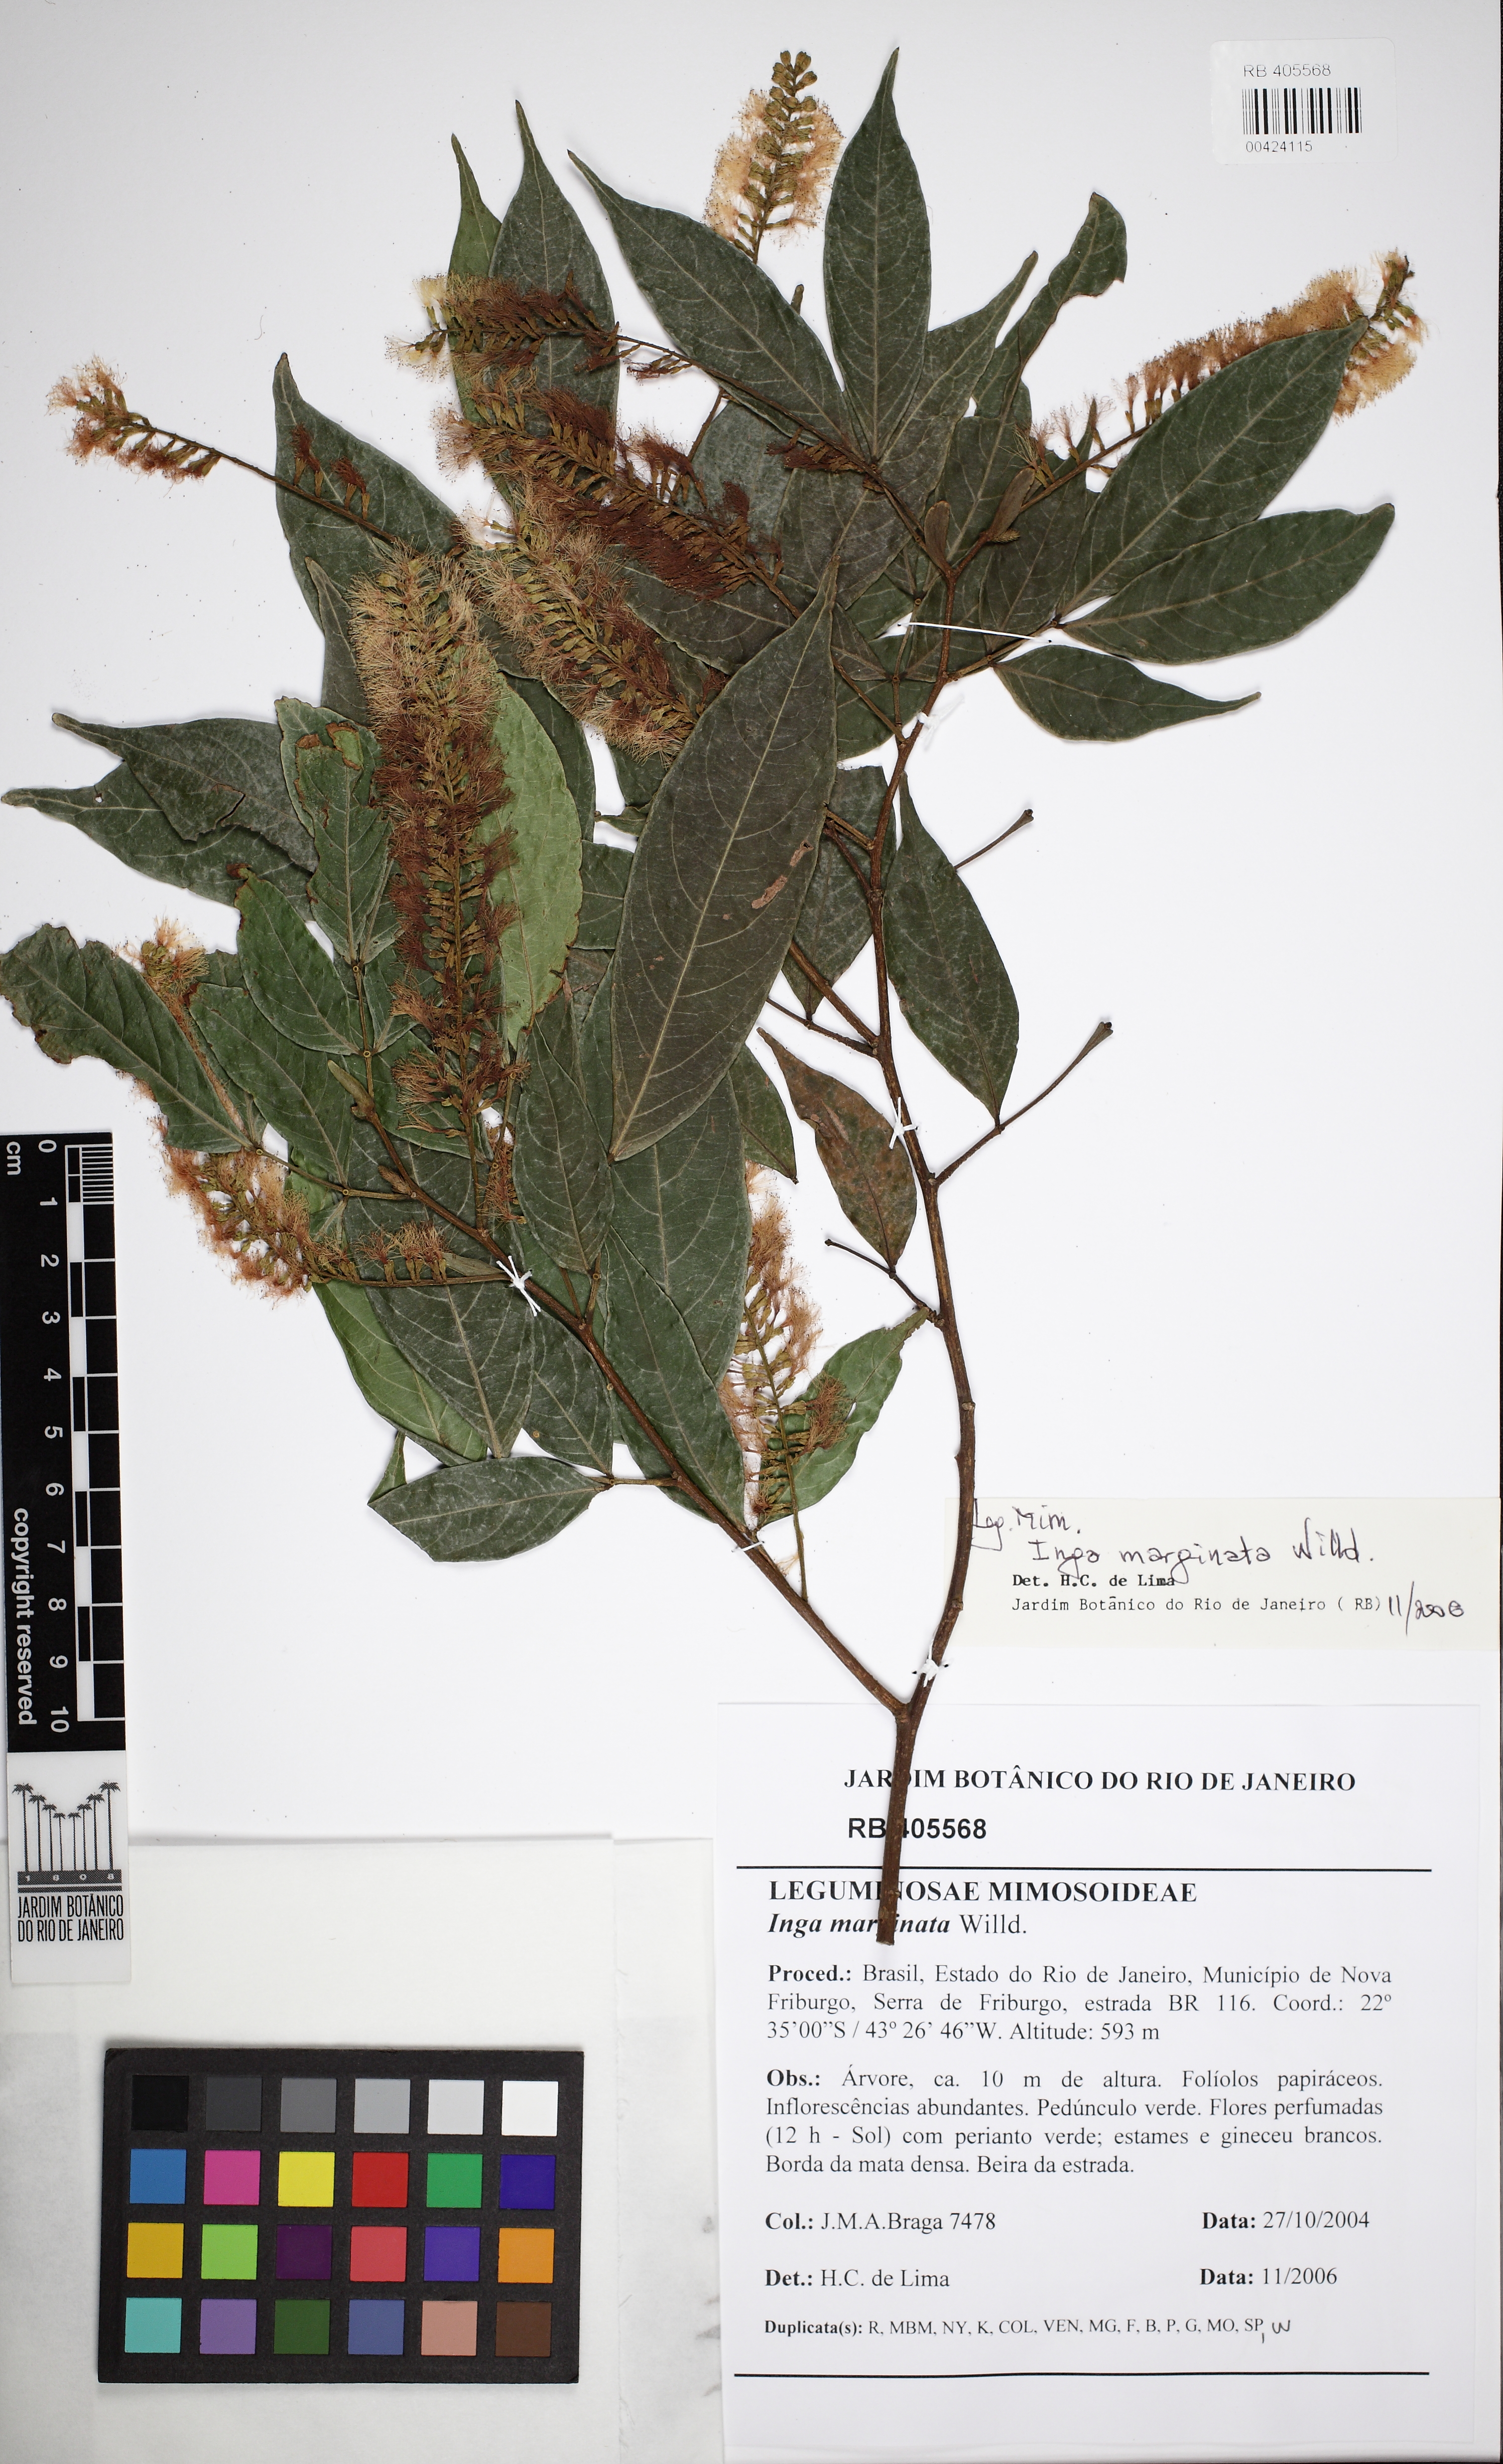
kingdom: Plantae
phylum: Tracheophyta
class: Magnoliopsida
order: Fabales
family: Fabaceae
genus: Inga
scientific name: Inga marginata
